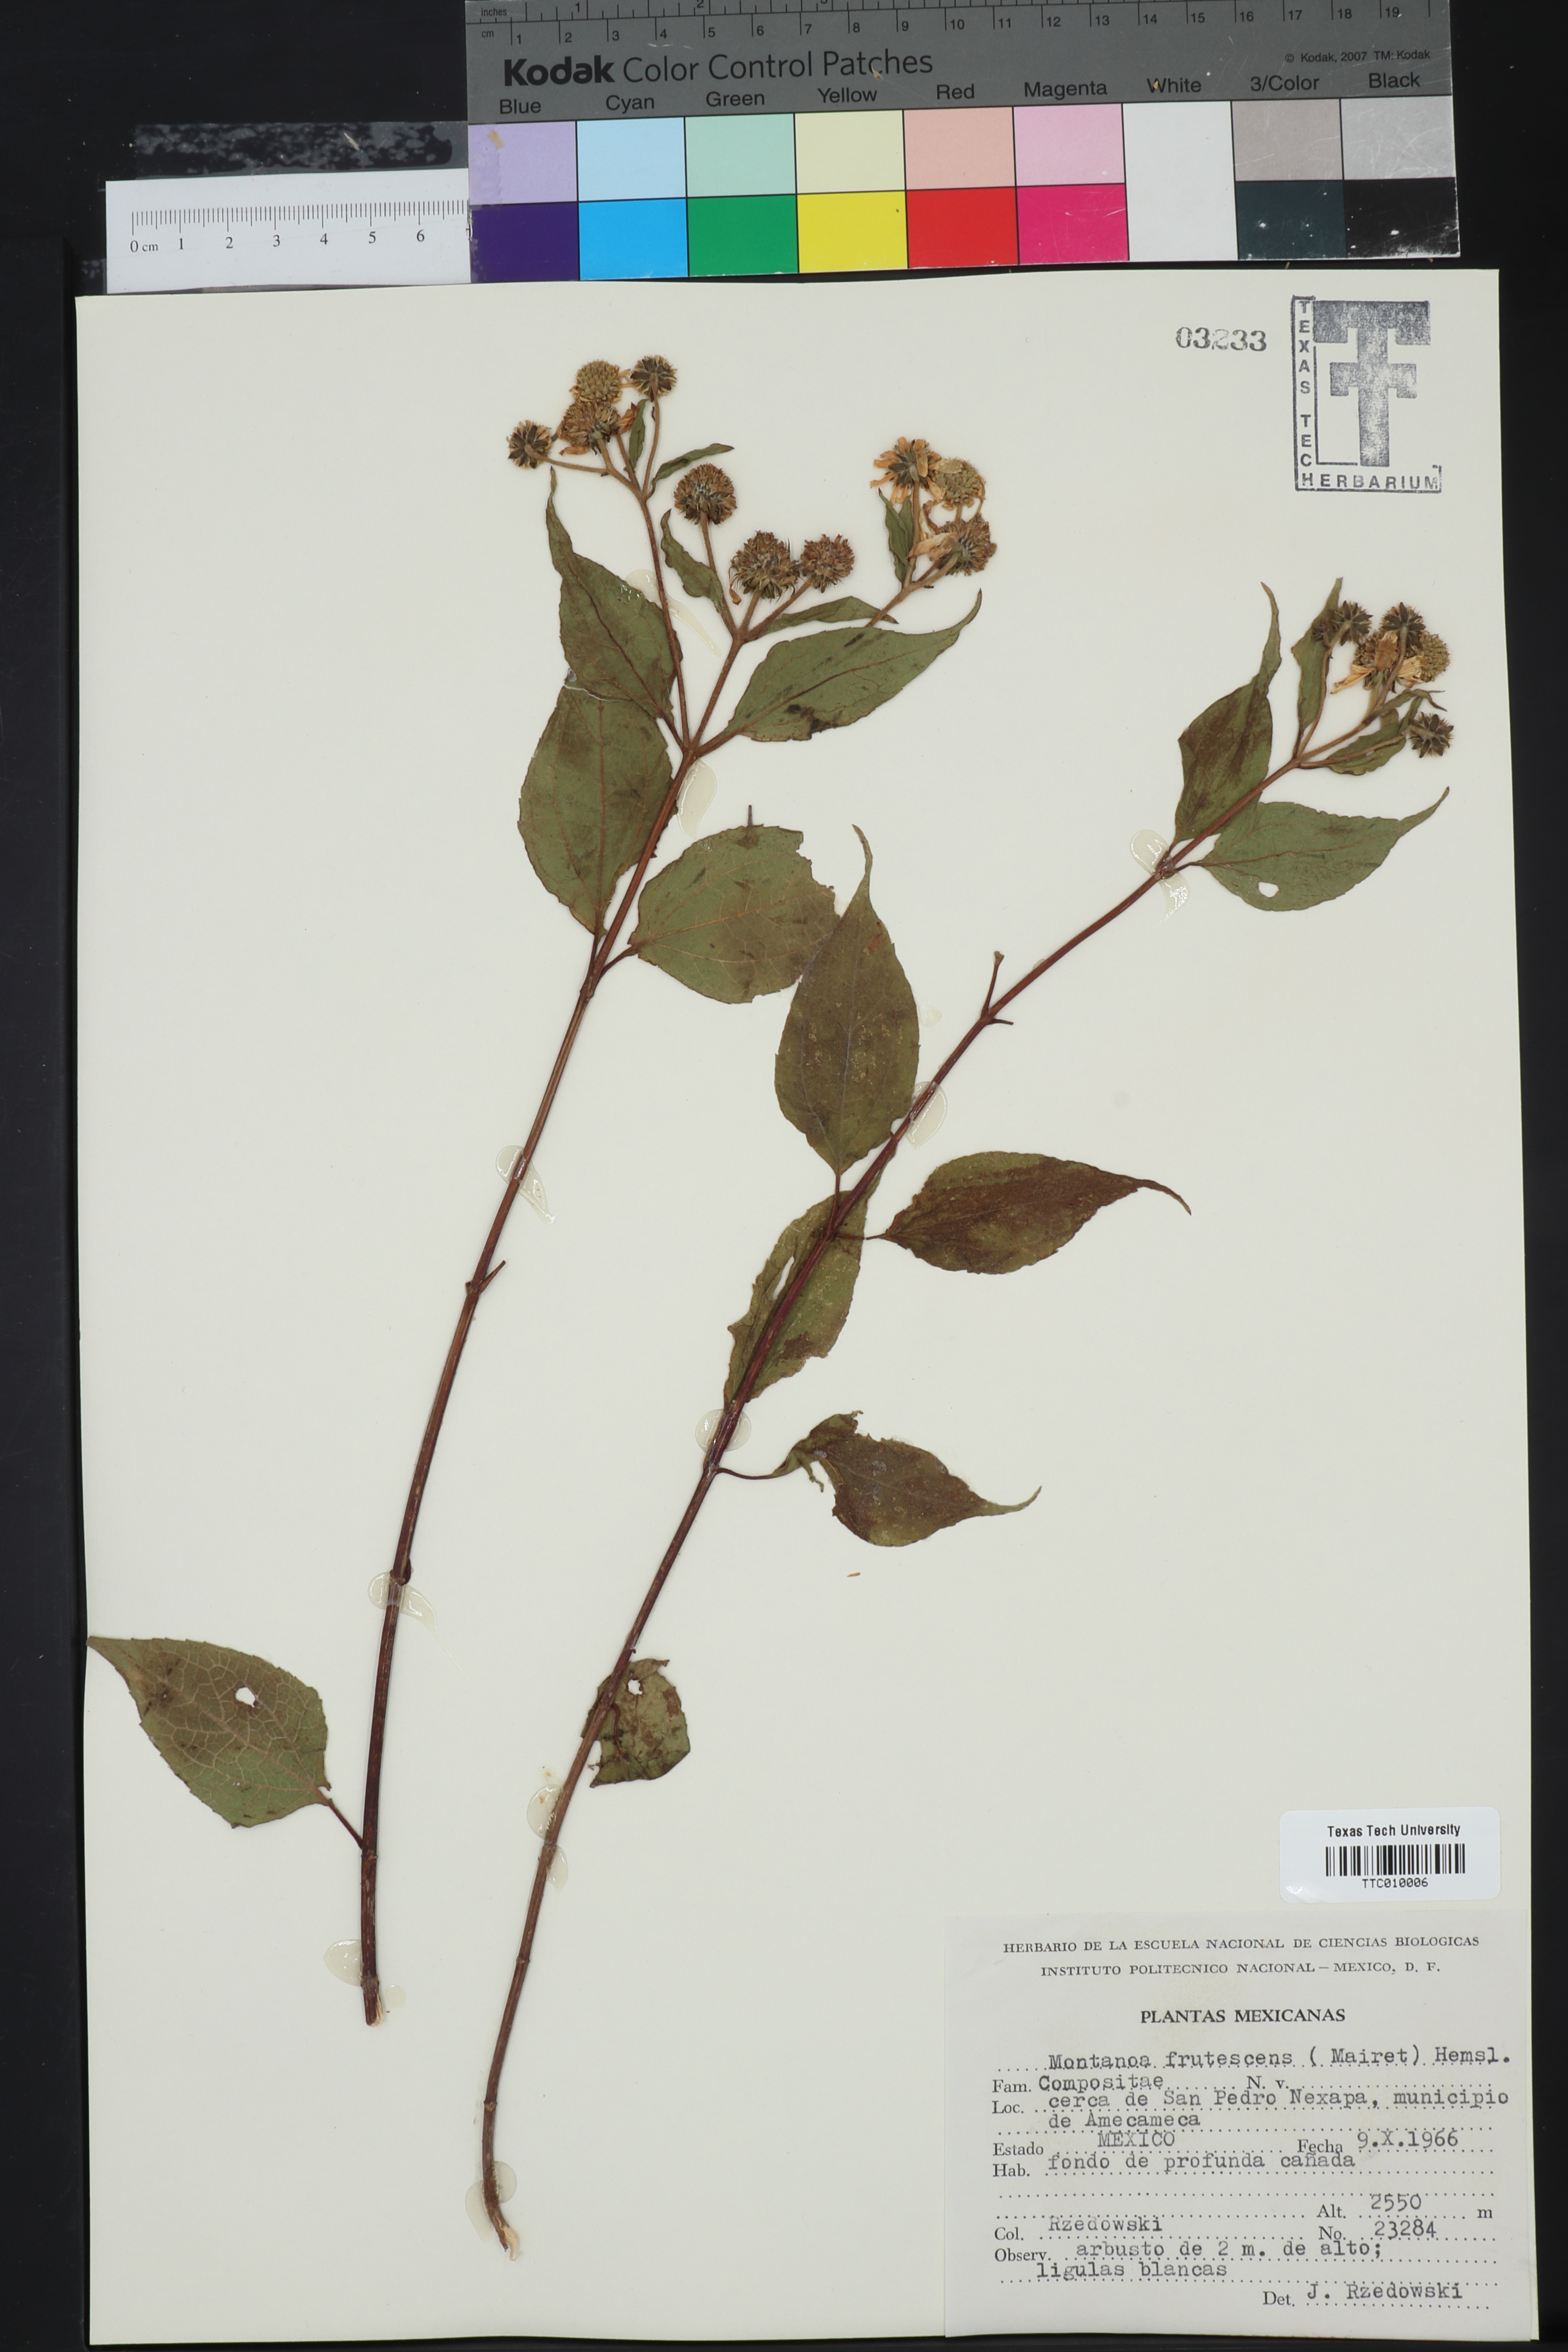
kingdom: Plantae
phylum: Tracheophyta
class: Magnoliopsida
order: Asterales
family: Asteraceae
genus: Montanoa
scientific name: Montanoa frutescens
